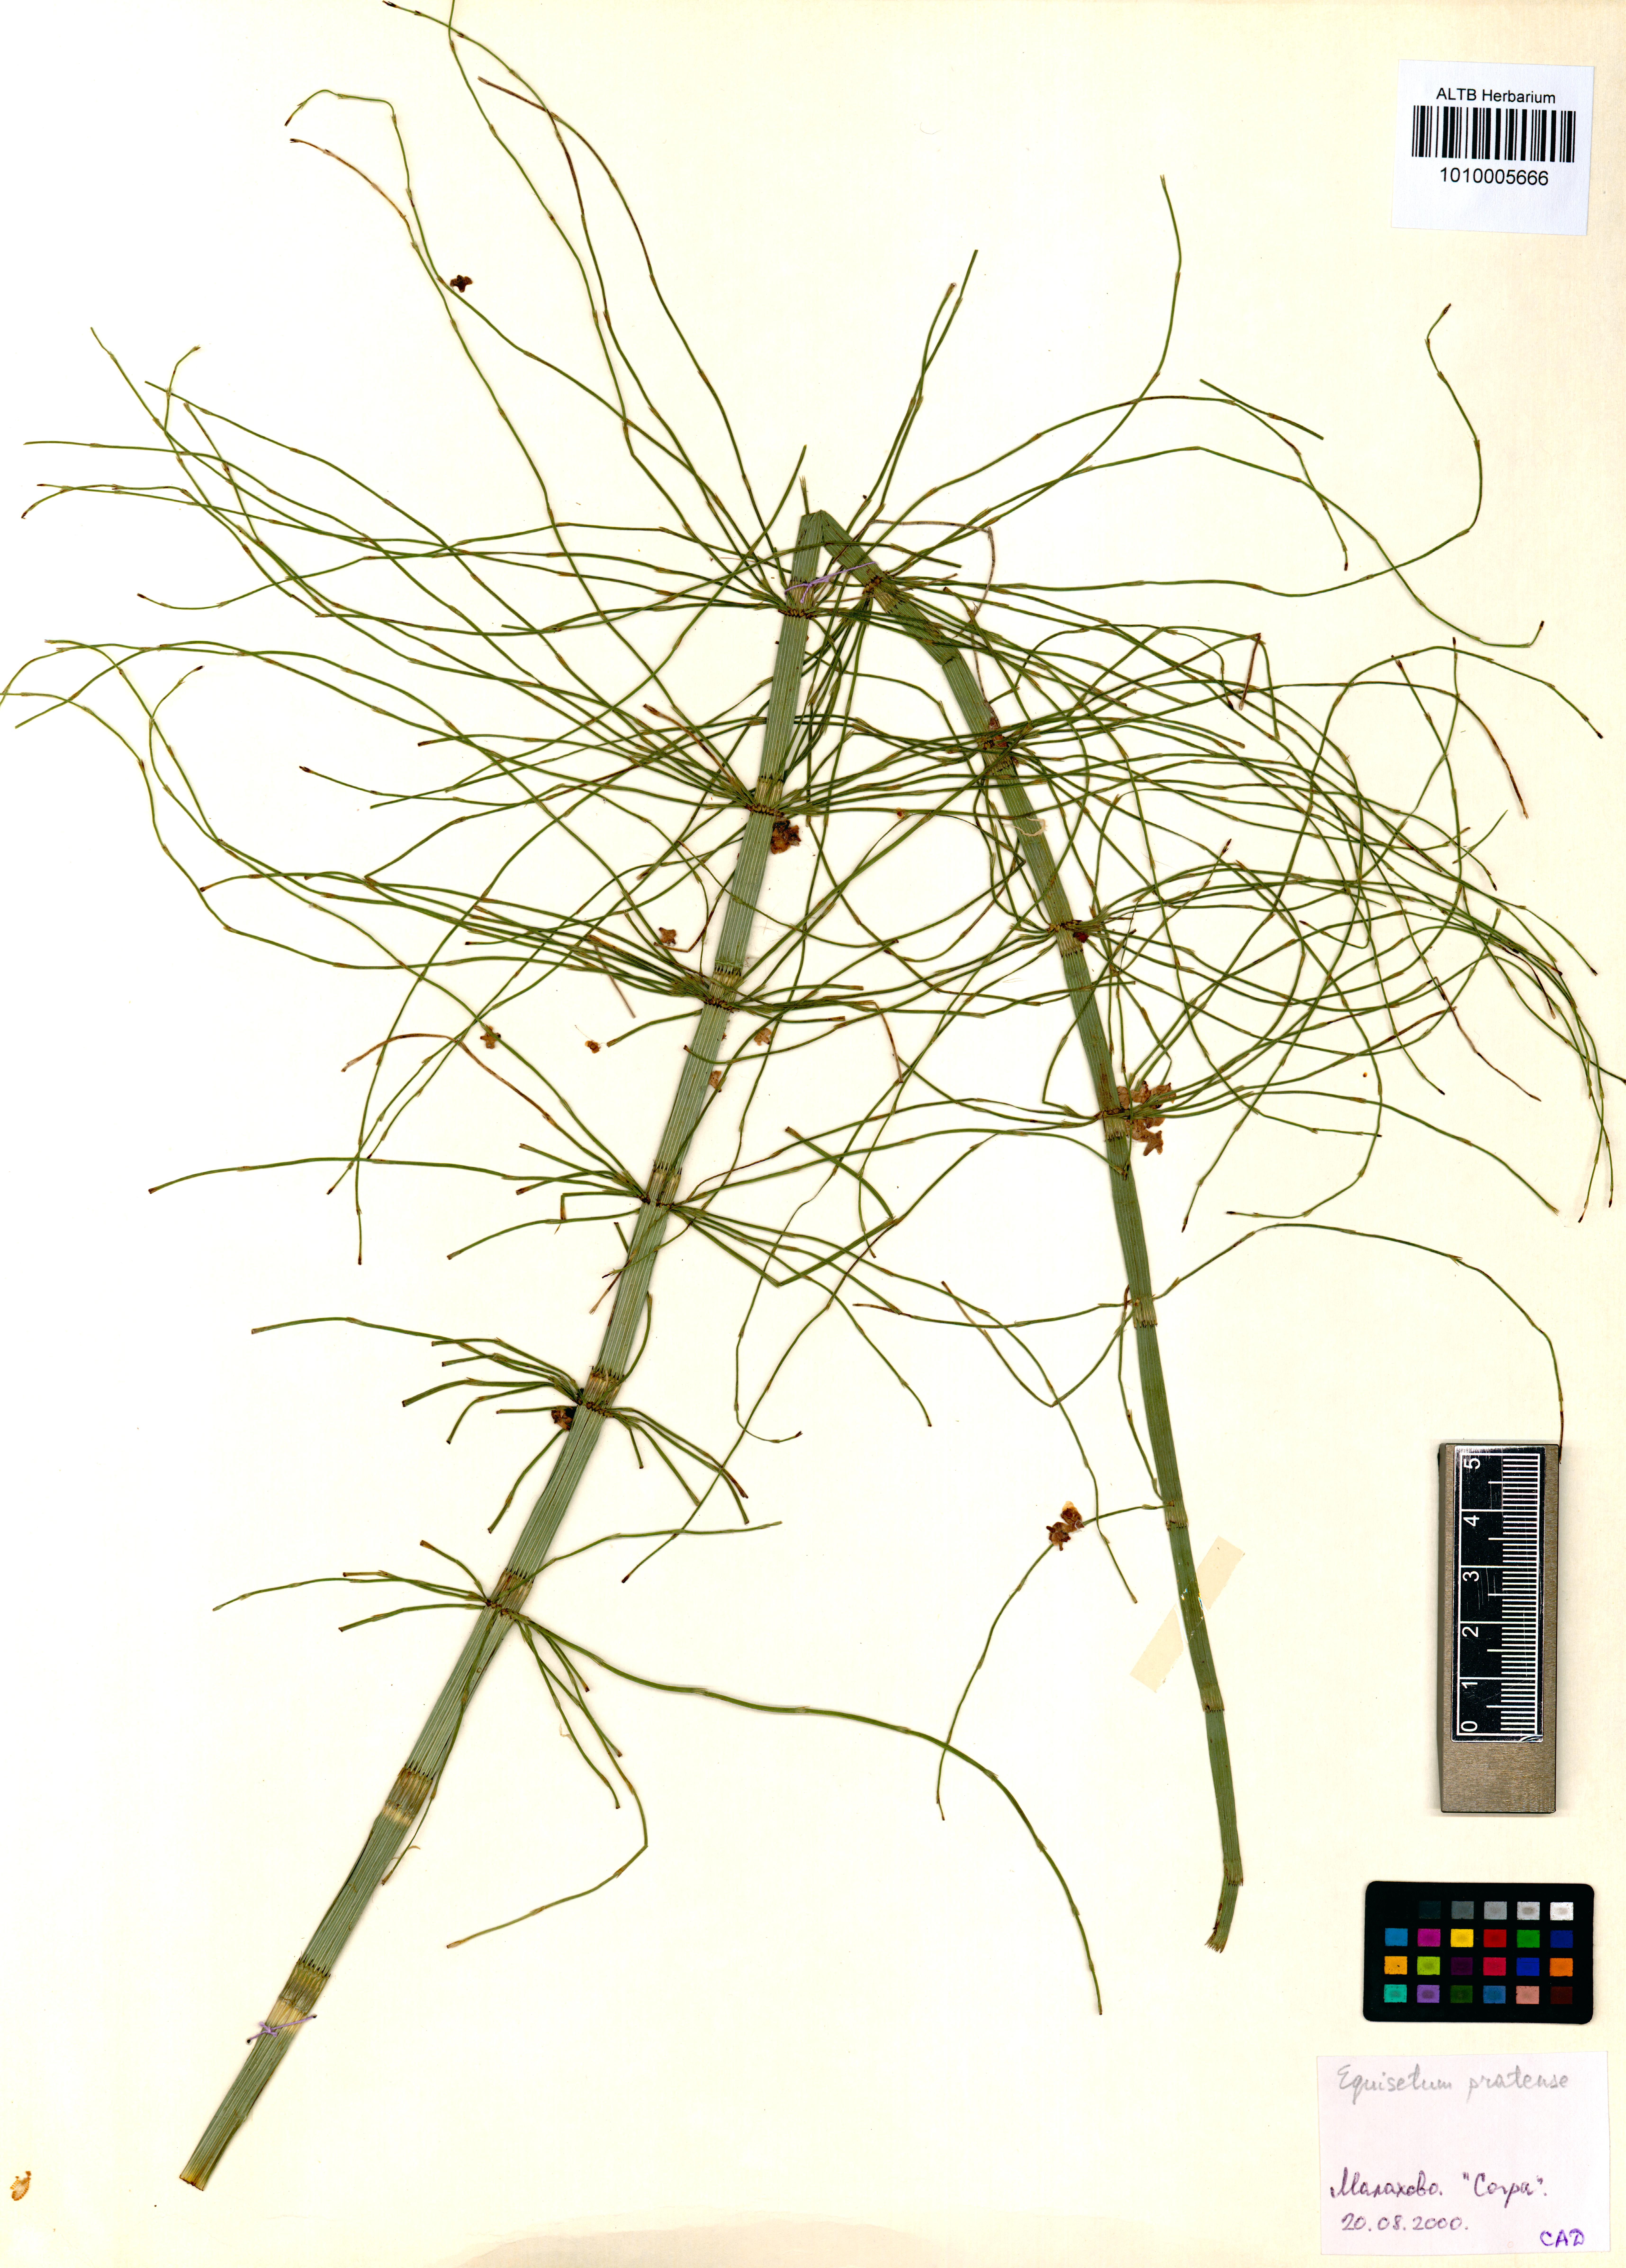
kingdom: Plantae
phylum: Tracheophyta
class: Polypodiopsida
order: Equisetales
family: Equisetaceae
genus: Equisetum
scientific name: Equisetum pratense
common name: Meadow horsetail
